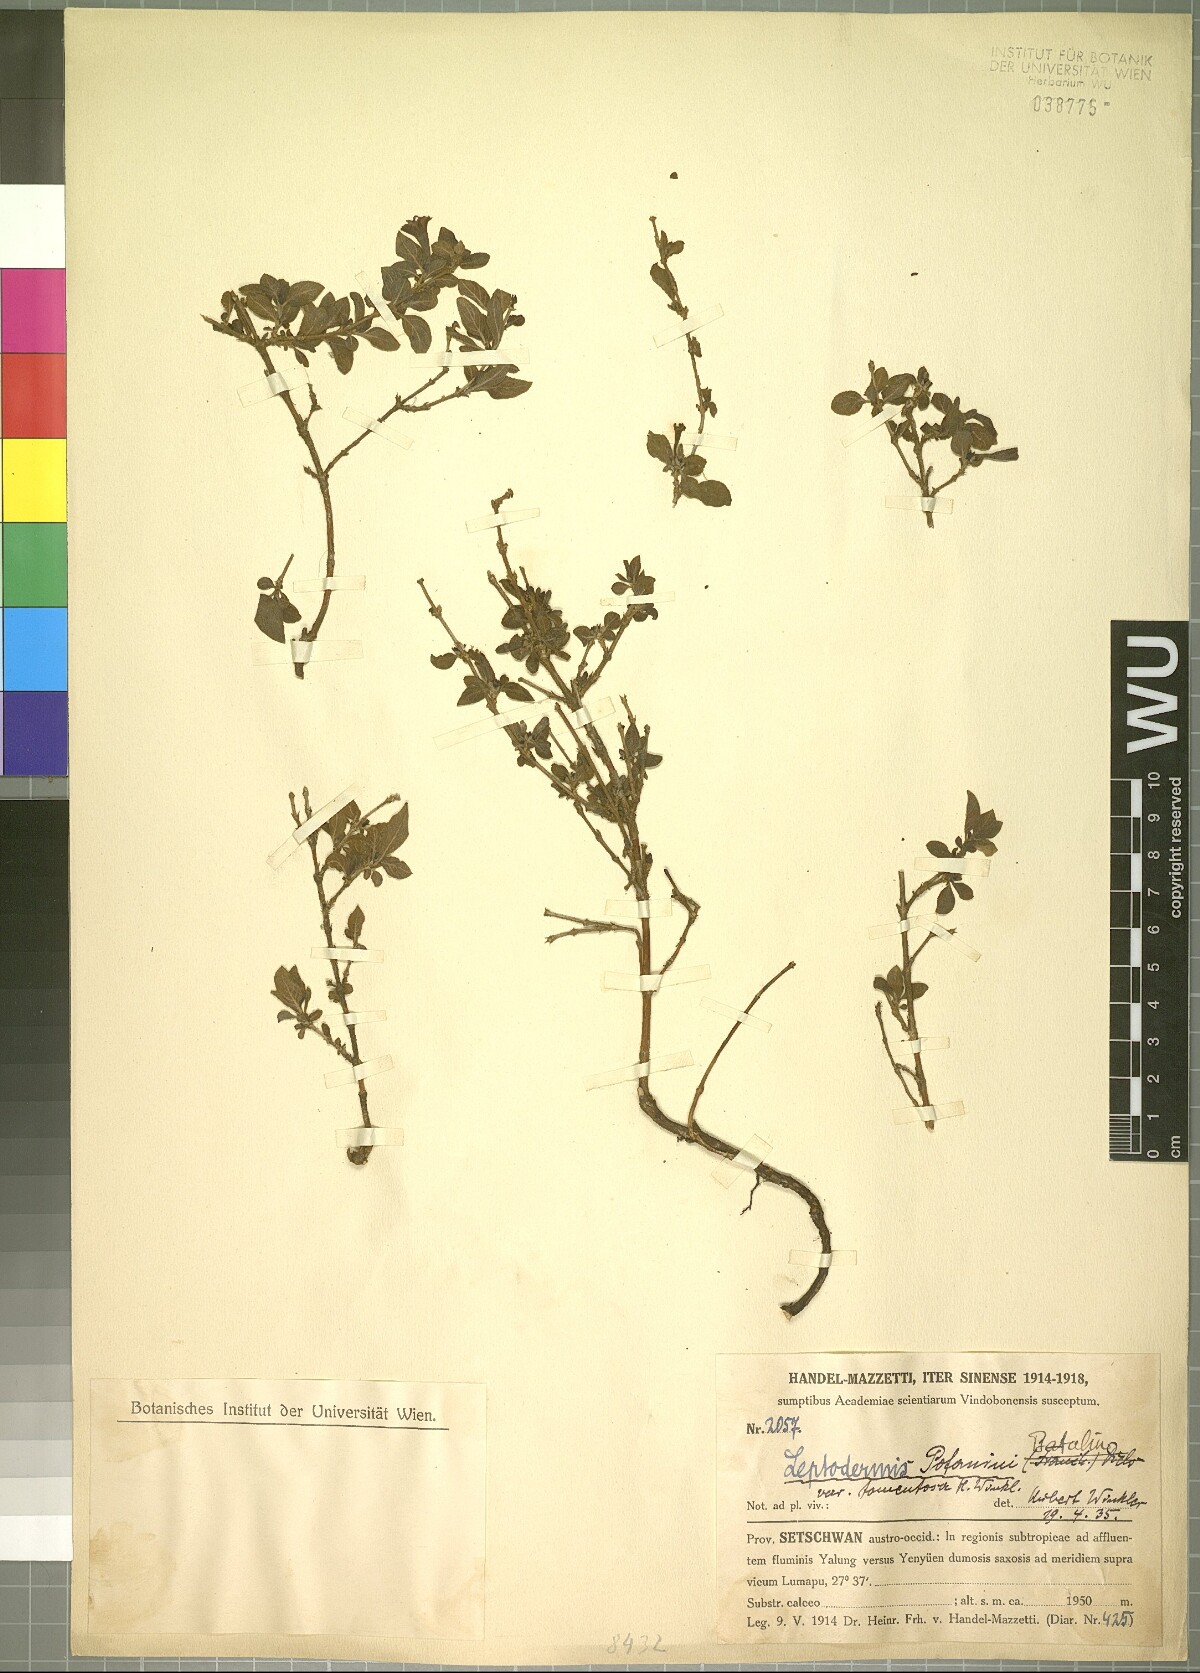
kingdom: Plantae
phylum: Tracheophyta
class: Magnoliopsida
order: Gentianales
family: Rubiaceae
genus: Leptodermis
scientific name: Leptodermis potaninii
